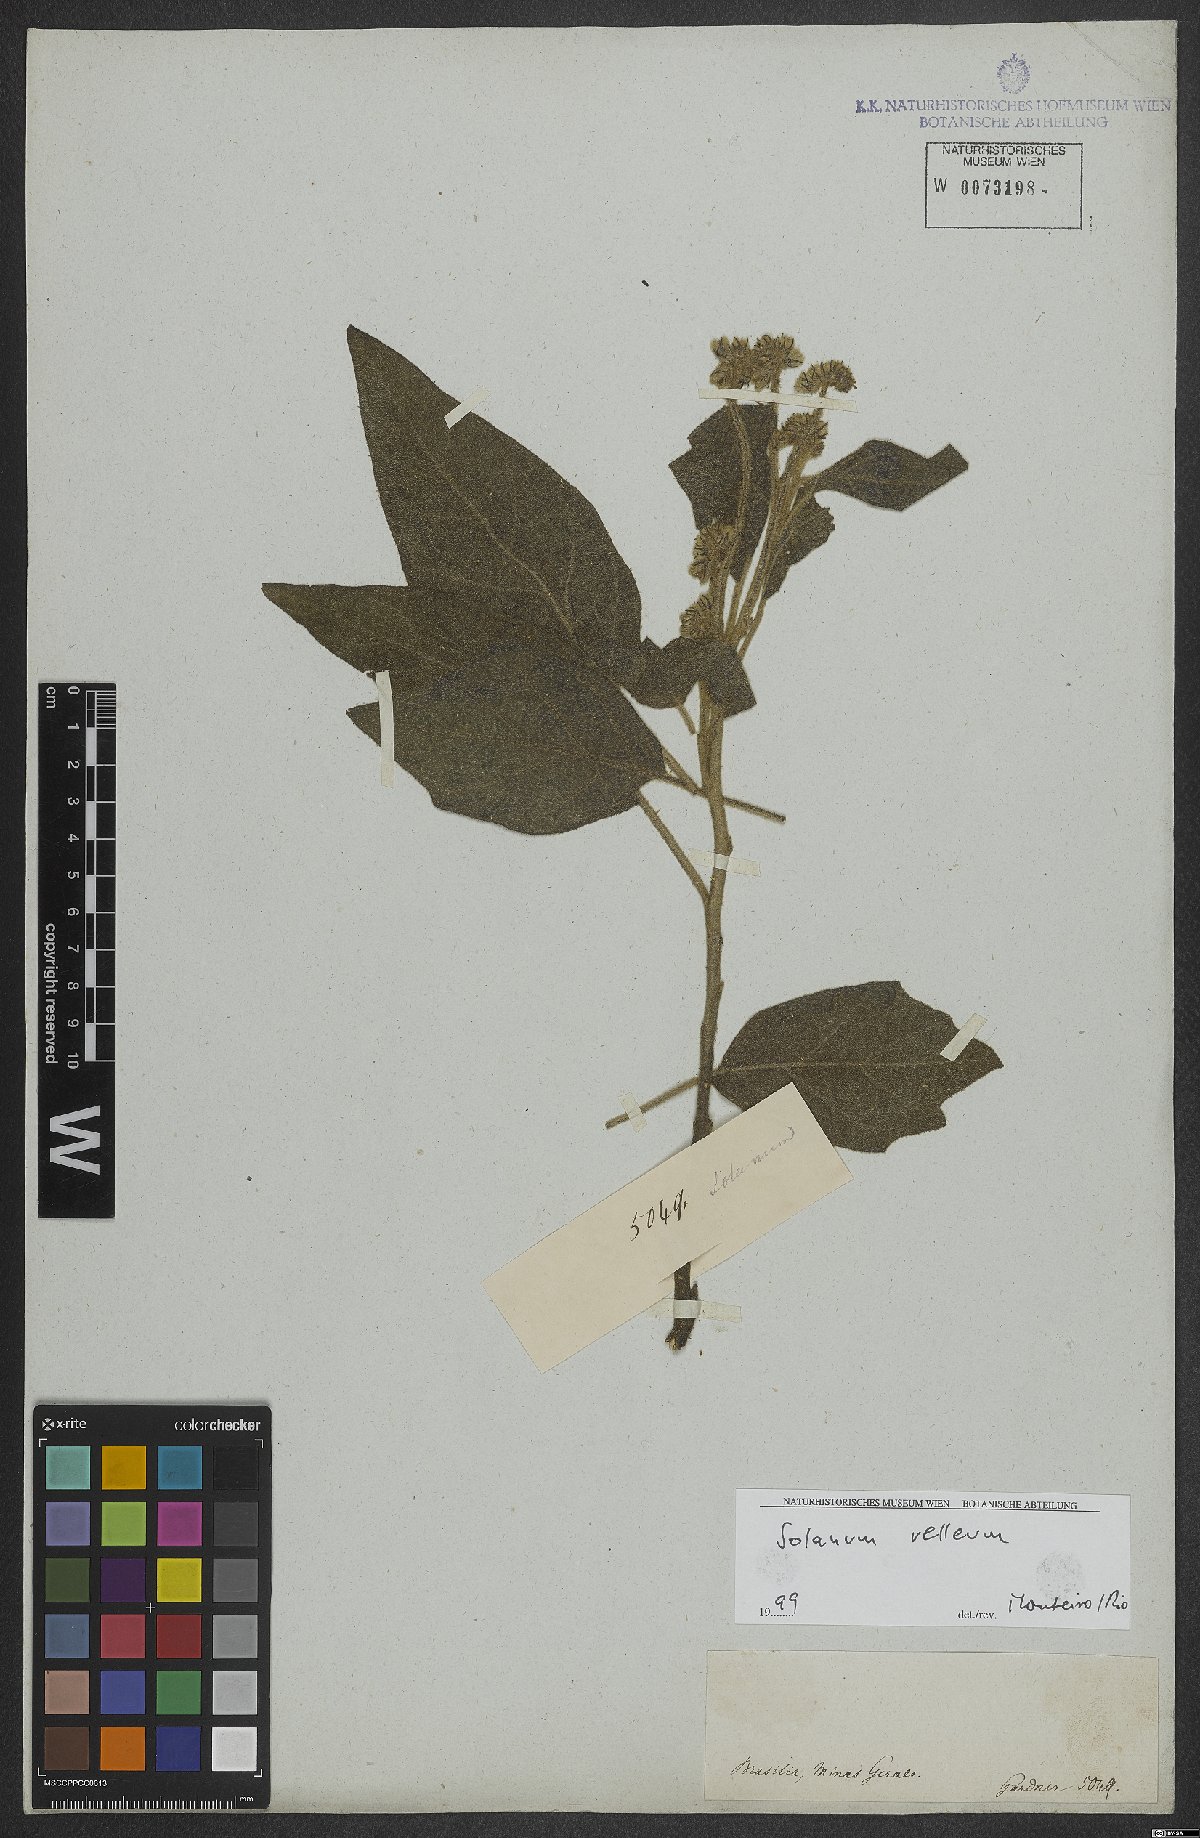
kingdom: Plantae
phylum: Tracheophyta
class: Magnoliopsida
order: Solanales
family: Solanaceae
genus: Solanum
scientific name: Solanum velleum
